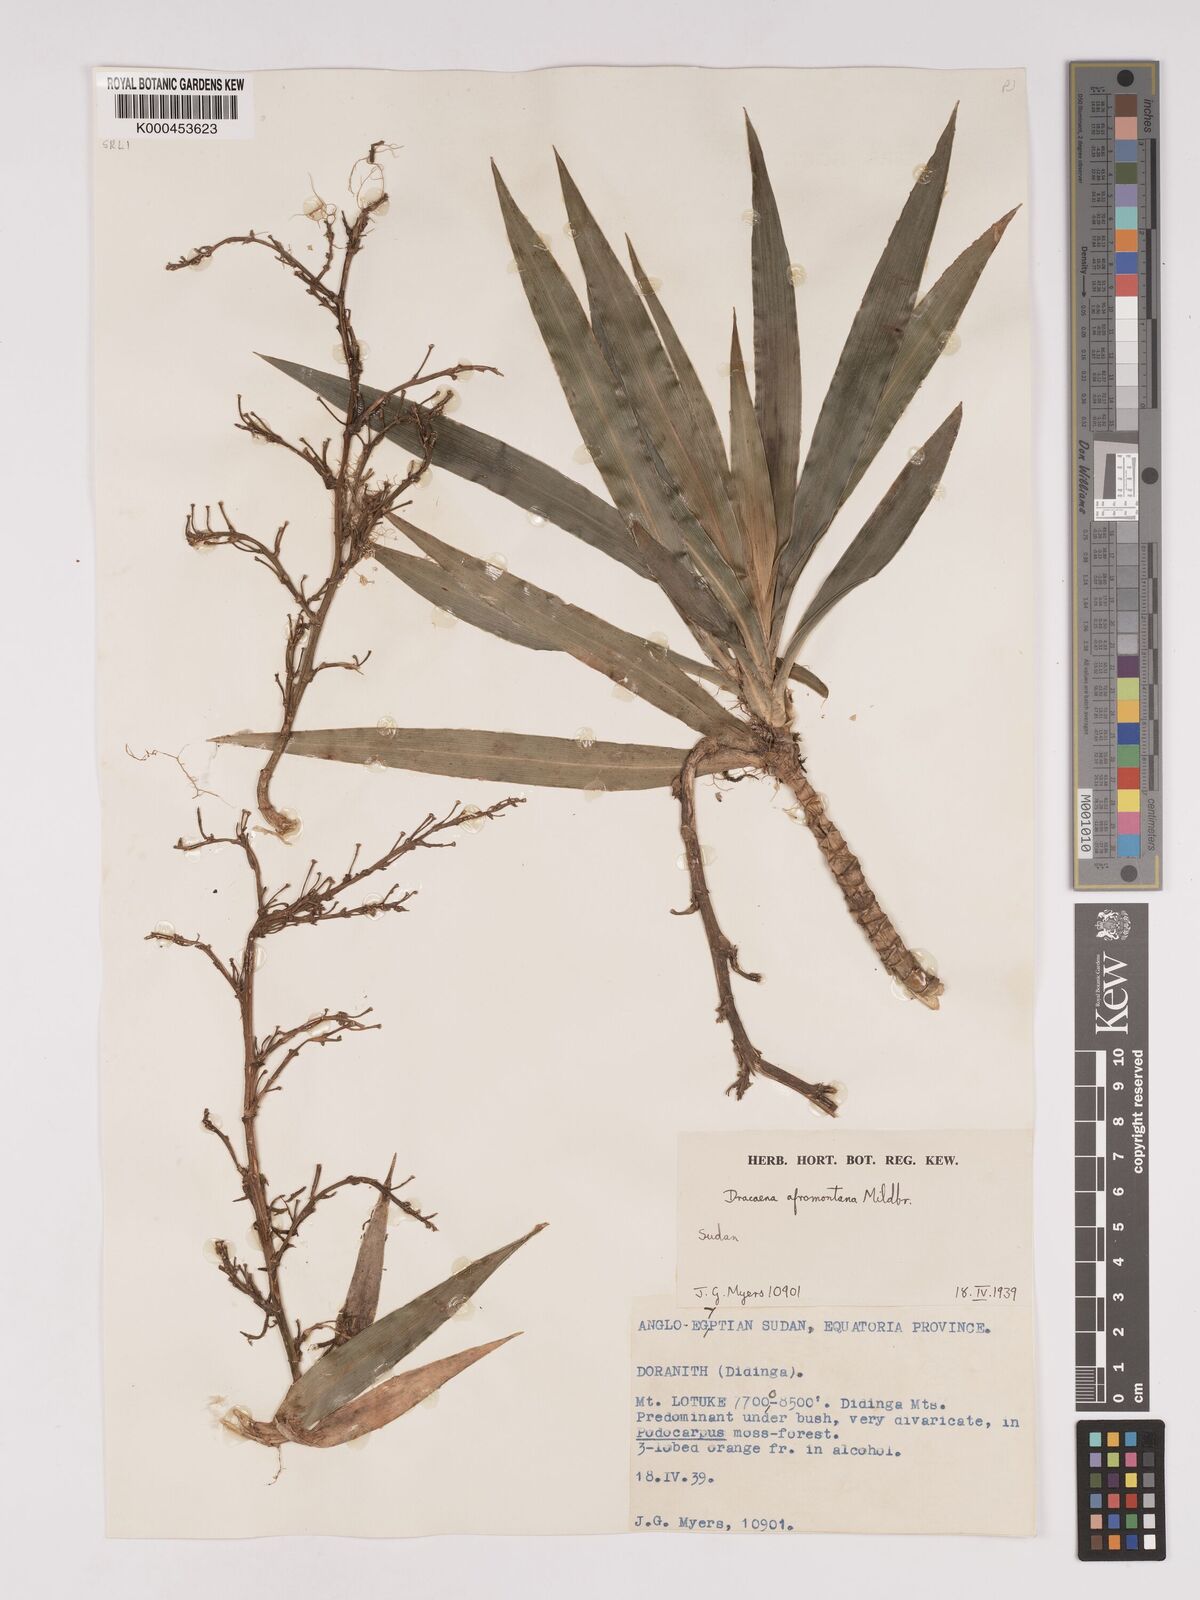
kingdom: Plantae
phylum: Tracheophyta
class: Liliopsida
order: Asparagales
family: Asparagaceae
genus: Dracaena
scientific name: Dracaena afromontana
